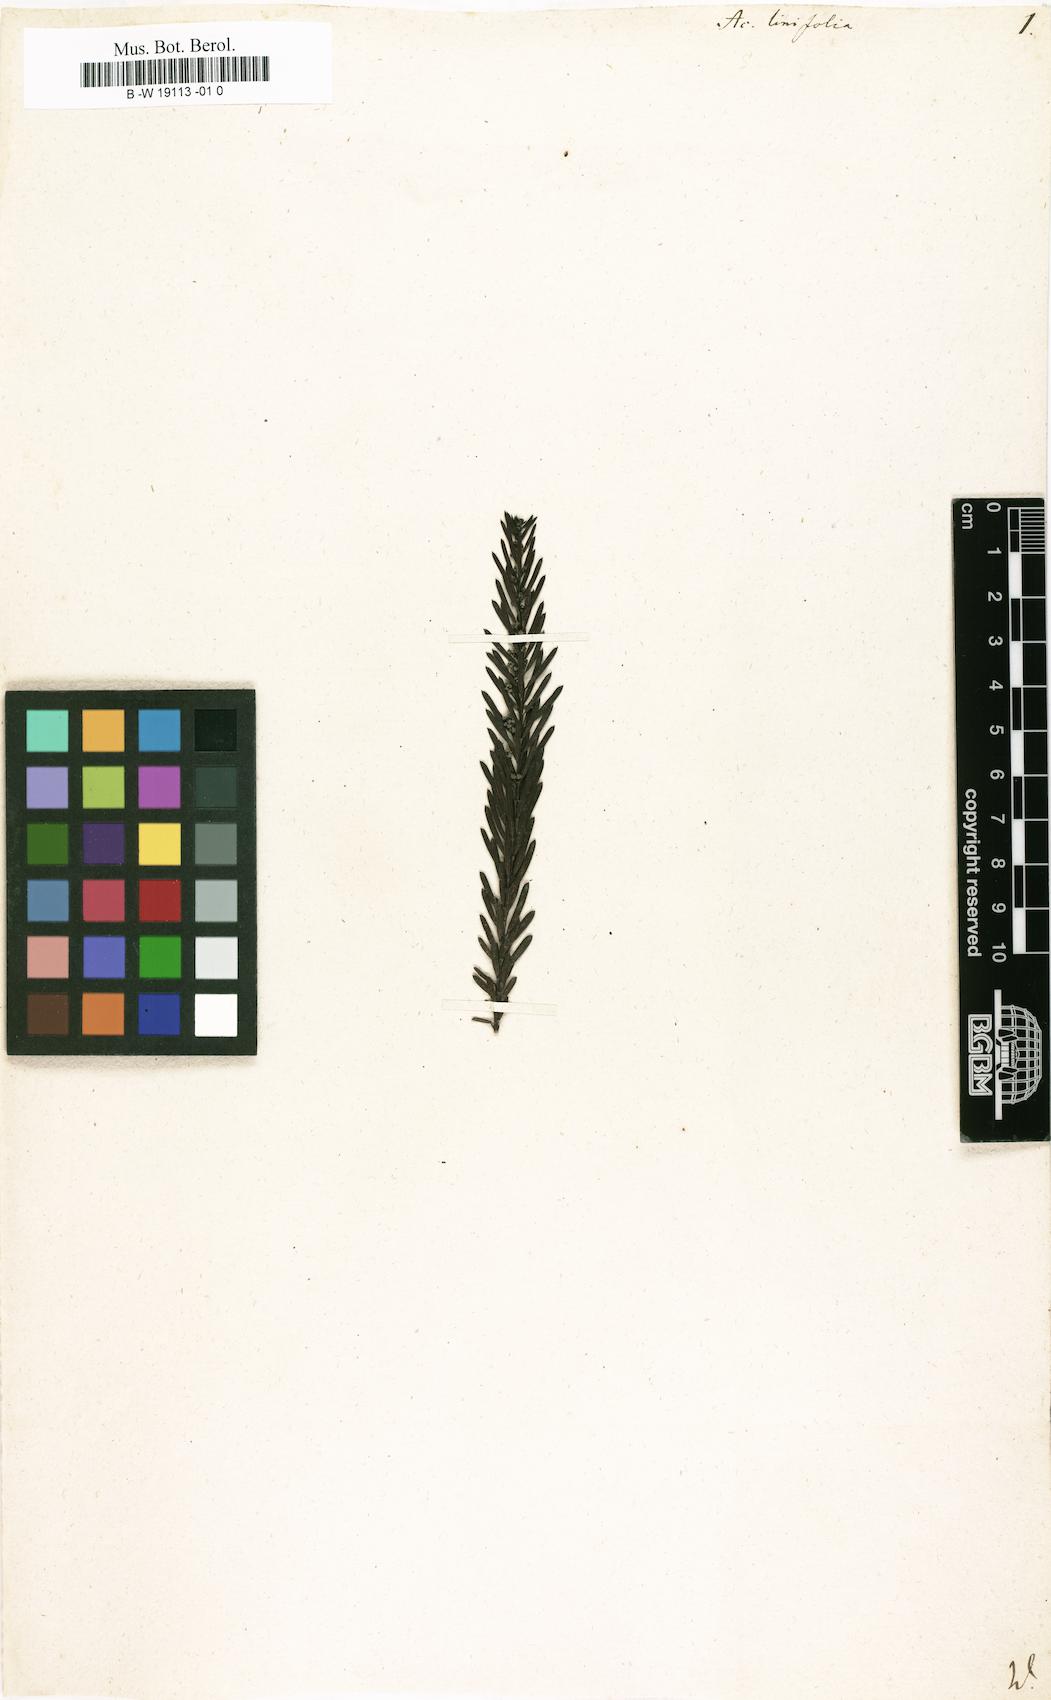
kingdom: Plantae
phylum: Tracheophyta
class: Magnoliopsida
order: Fabales
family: Fabaceae
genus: Acacia
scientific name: Acacia linifolia
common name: White wattle
